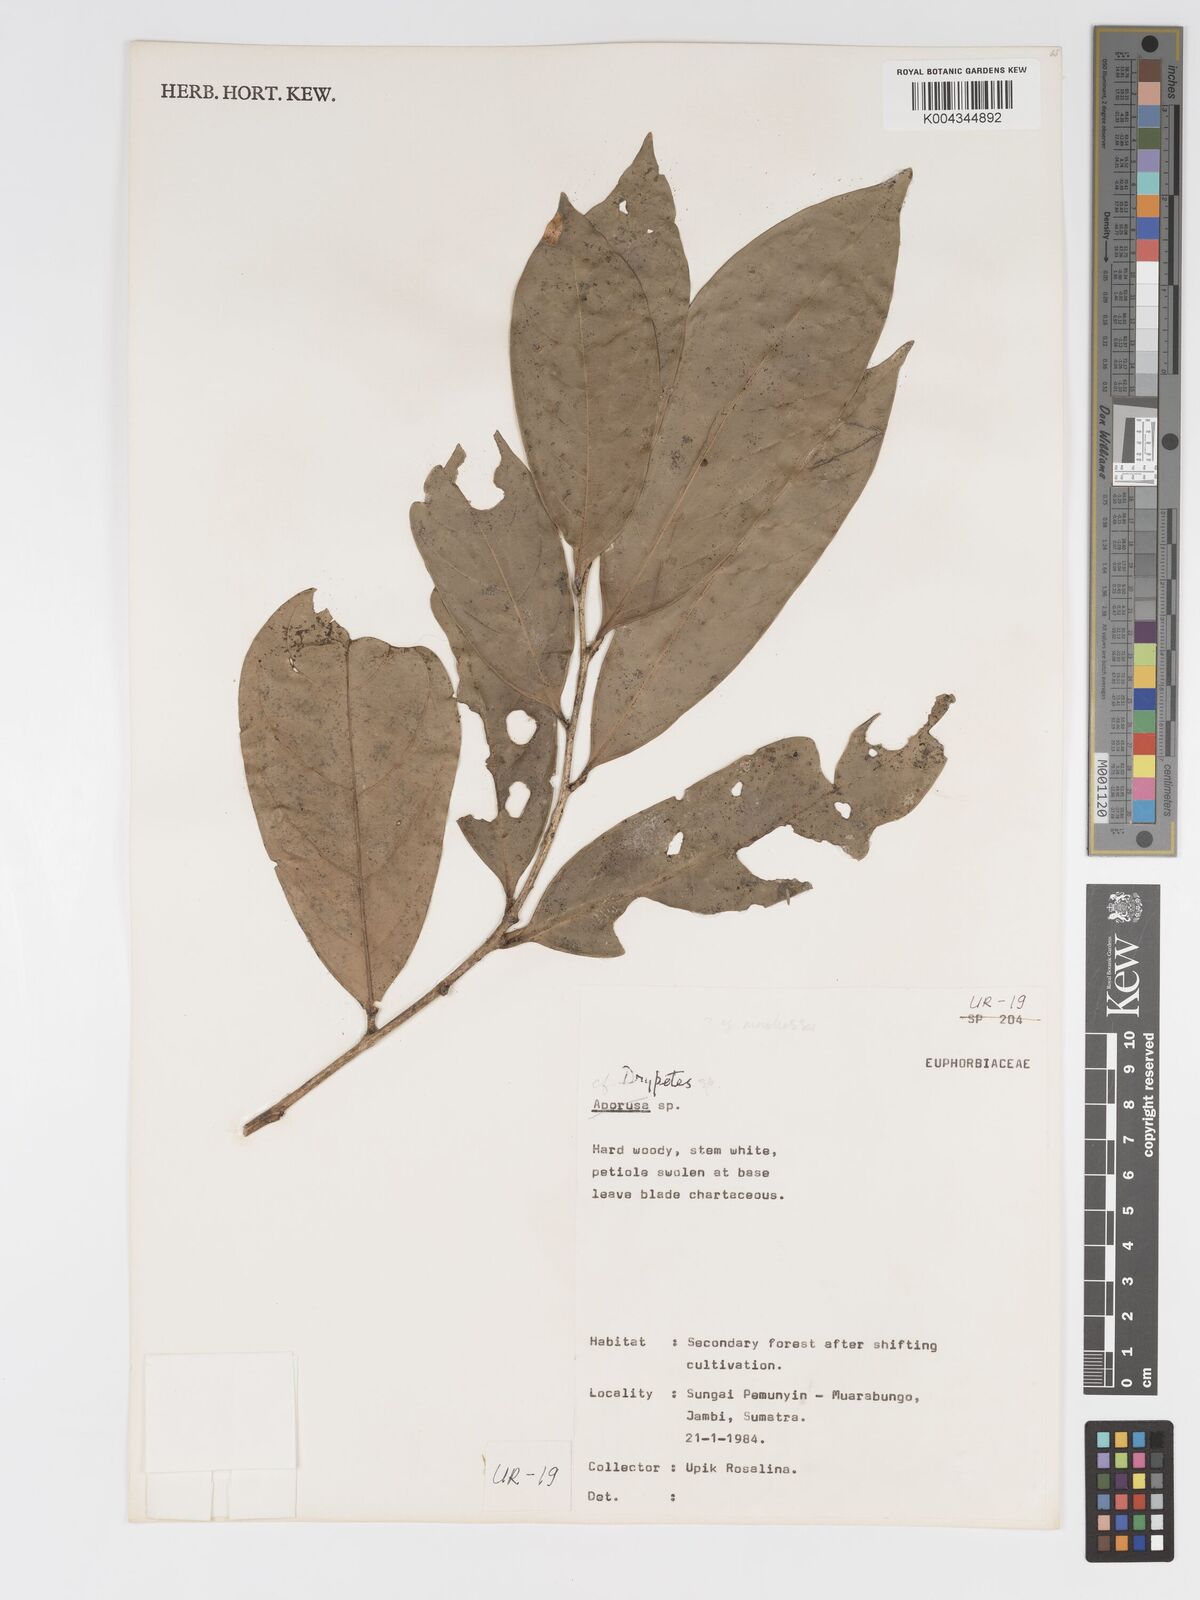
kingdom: Plantae
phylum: Tracheophyta
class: Magnoliopsida
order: Malpighiales
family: Putranjivaceae
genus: Drypetes
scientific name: Drypetes
